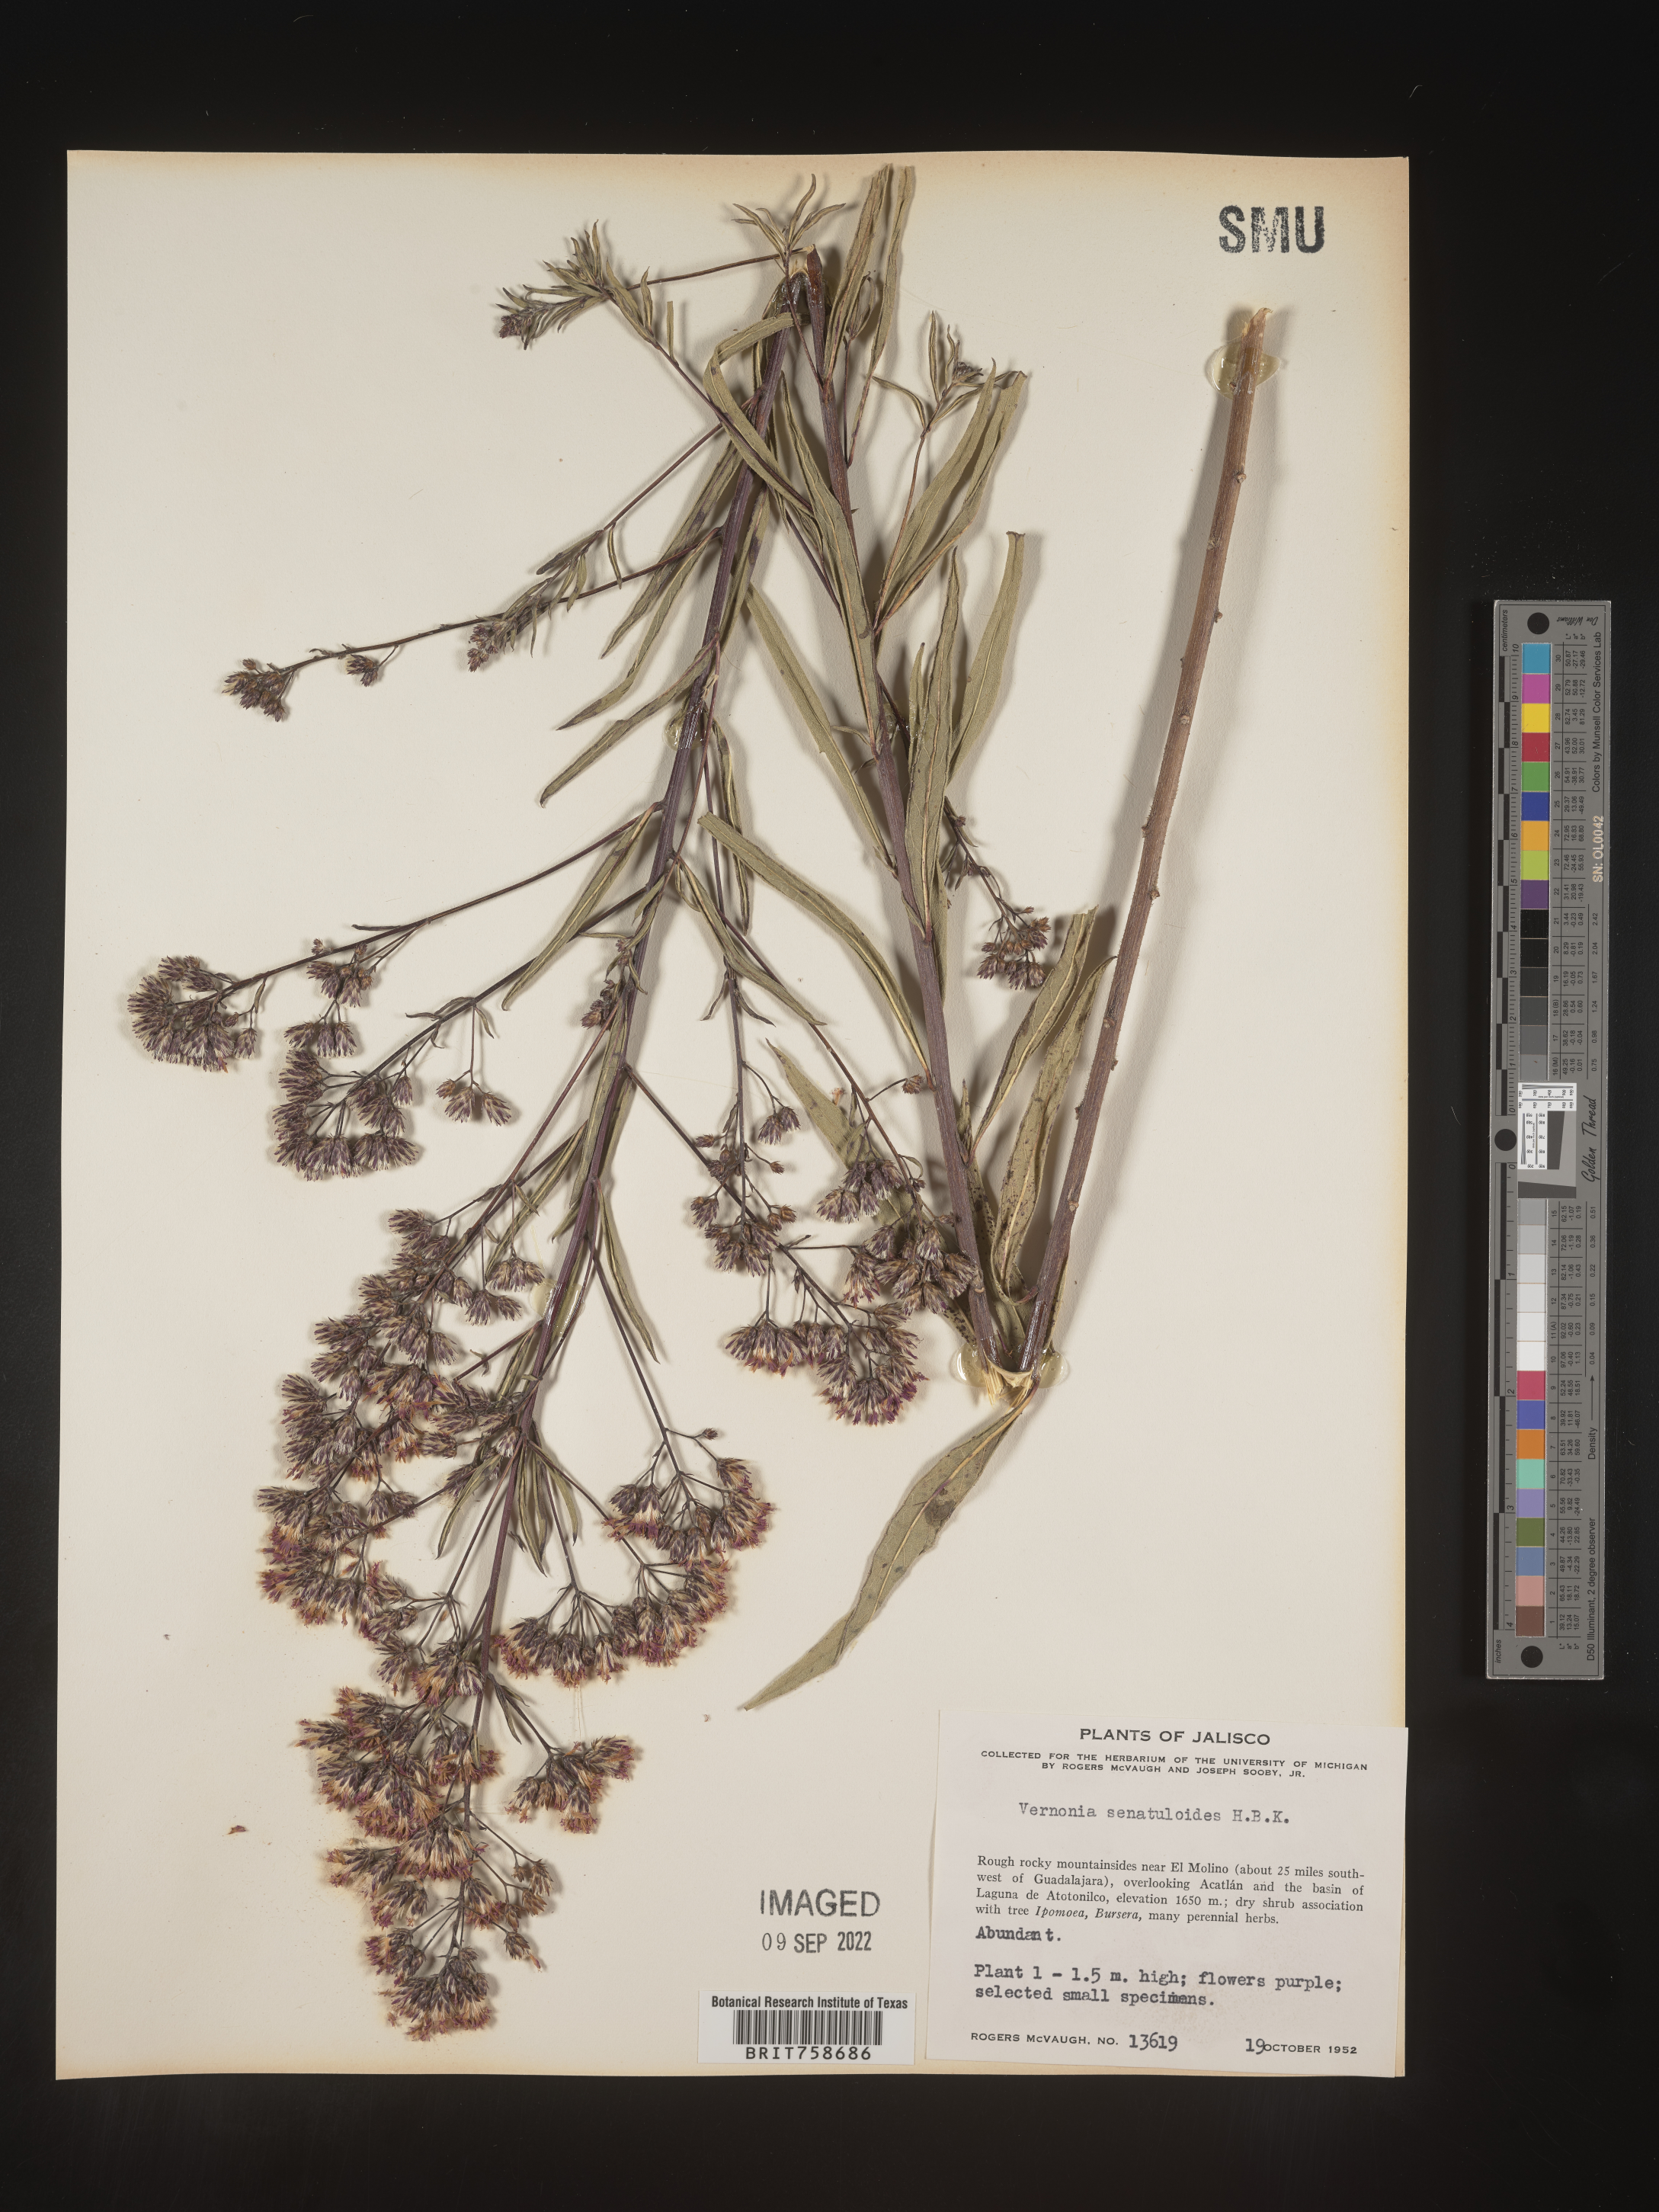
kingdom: Plantae
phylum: Tracheophyta
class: Magnoliopsida
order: Asterales
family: Asteraceae
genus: Vernonia
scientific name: Vernonia
